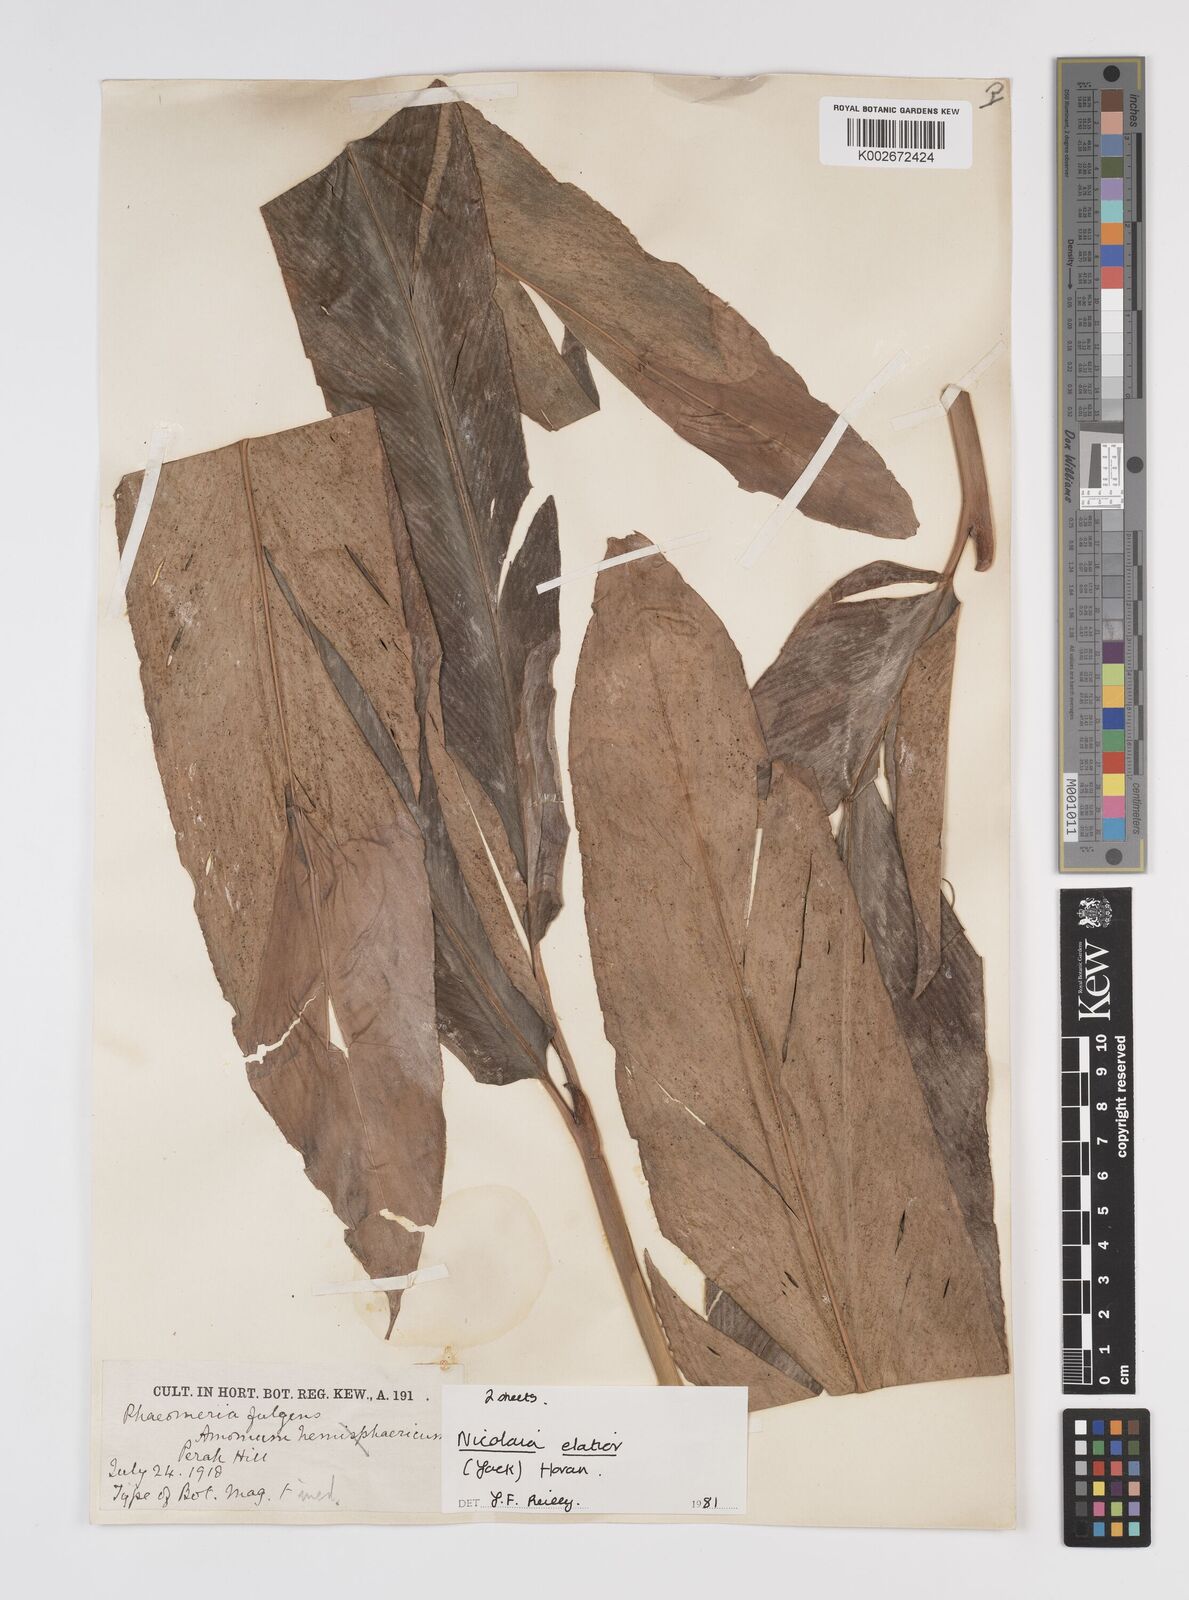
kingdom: Plantae
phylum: Tracheophyta
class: Liliopsida
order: Zingiberales
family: Zingiberaceae
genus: Etlingera
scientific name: Etlingera elatior
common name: Philippine waxflower
